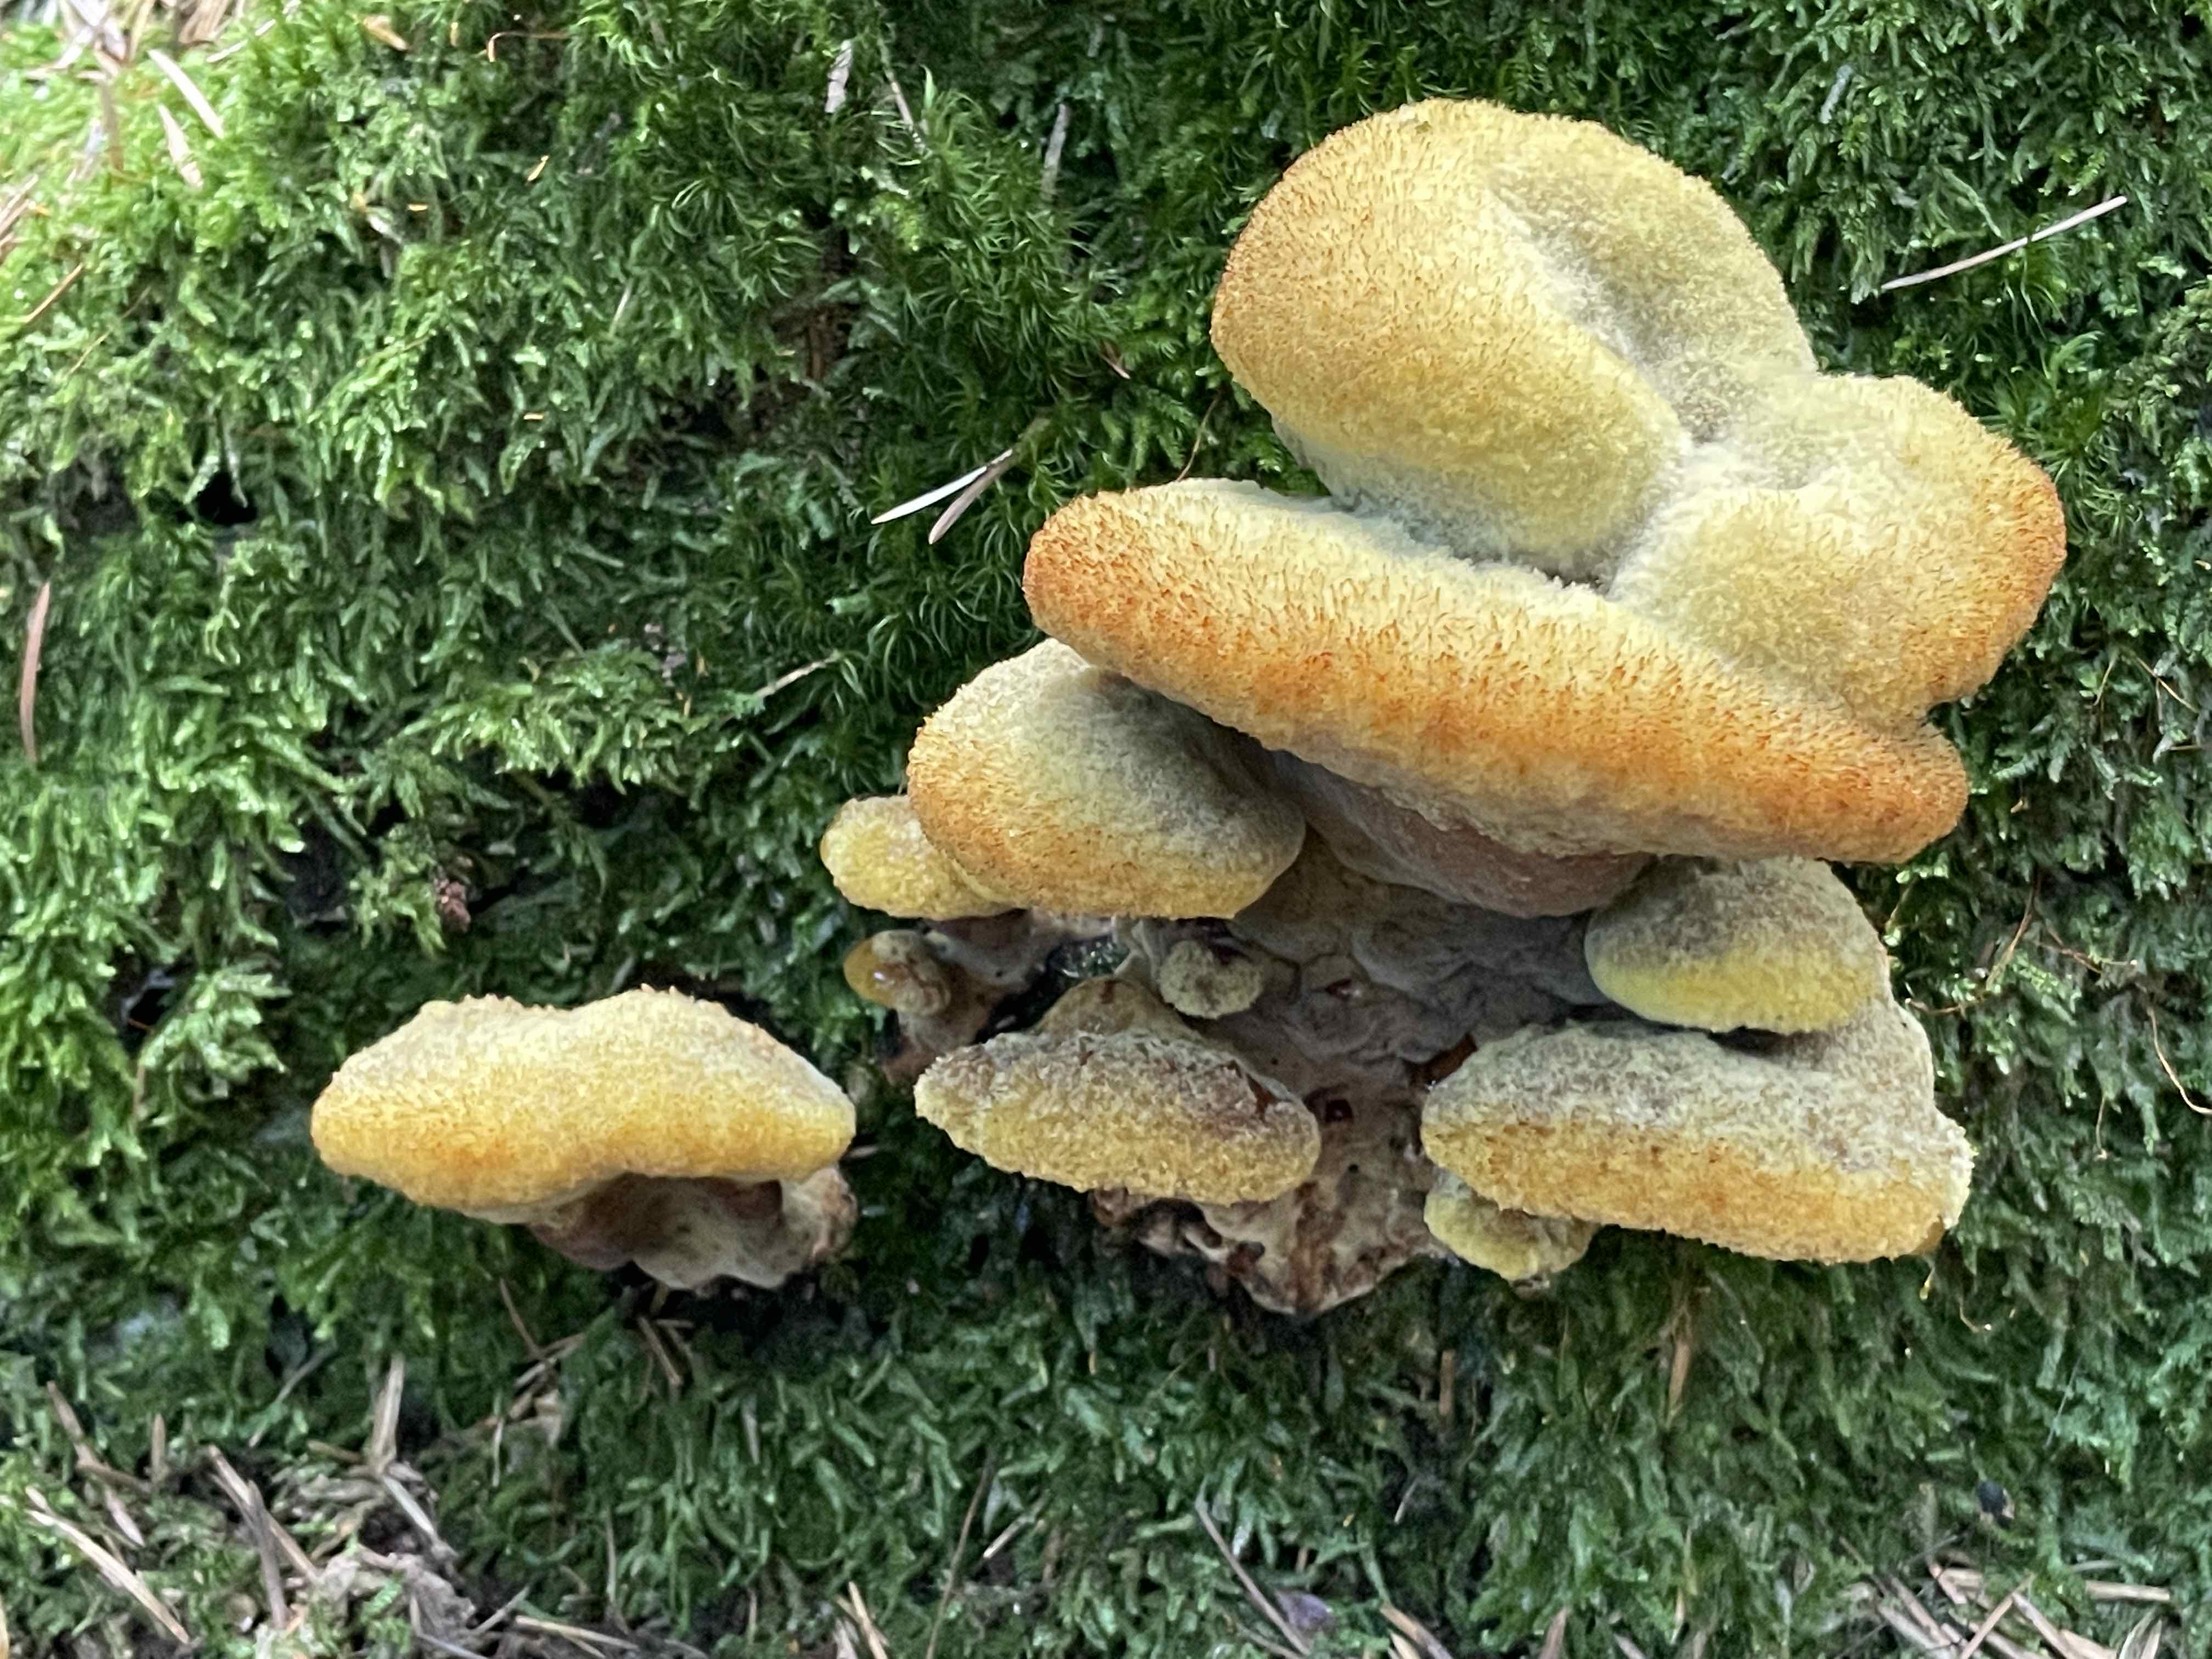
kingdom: Fungi
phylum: Basidiomycota
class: Agaricomycetes
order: Polyporales
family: Laetiporaceae
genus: Phaeolus
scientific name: Phaeolus schweinitzii
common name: brunporesvamp
